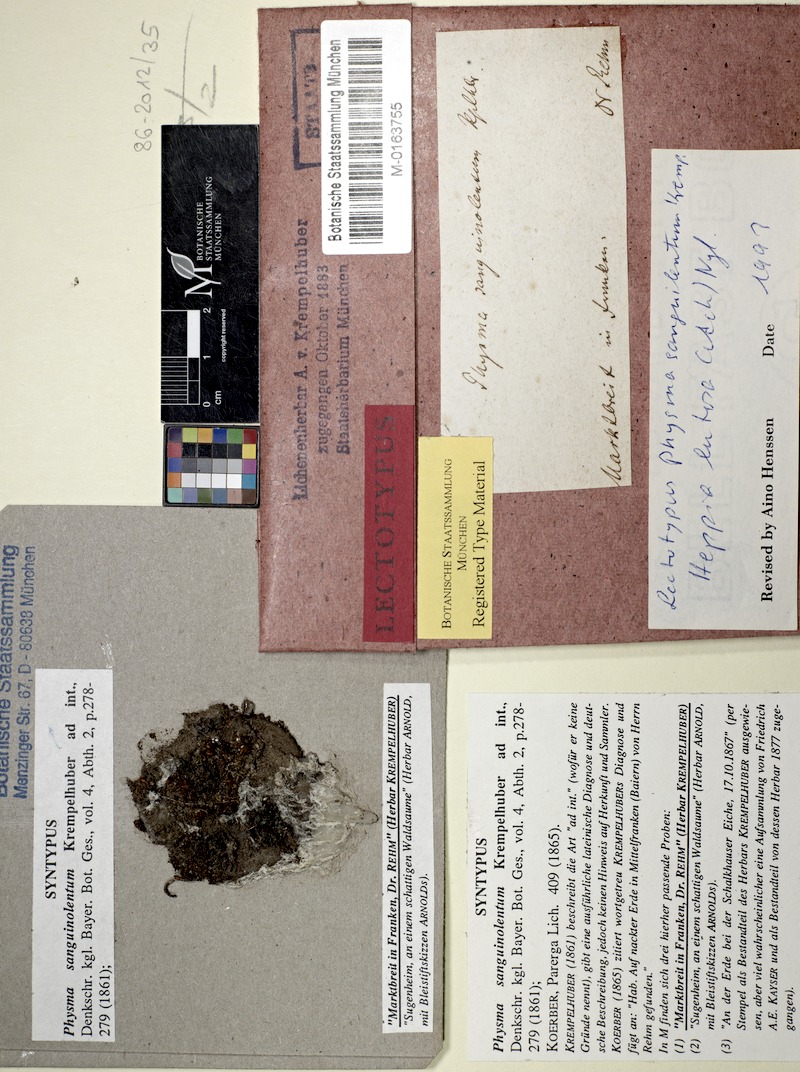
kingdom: Fungi
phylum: Ascomycota
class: Lichinomycetes
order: Lichinales
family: Lichinaceae
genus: Heppia
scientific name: Heppia lutosa
